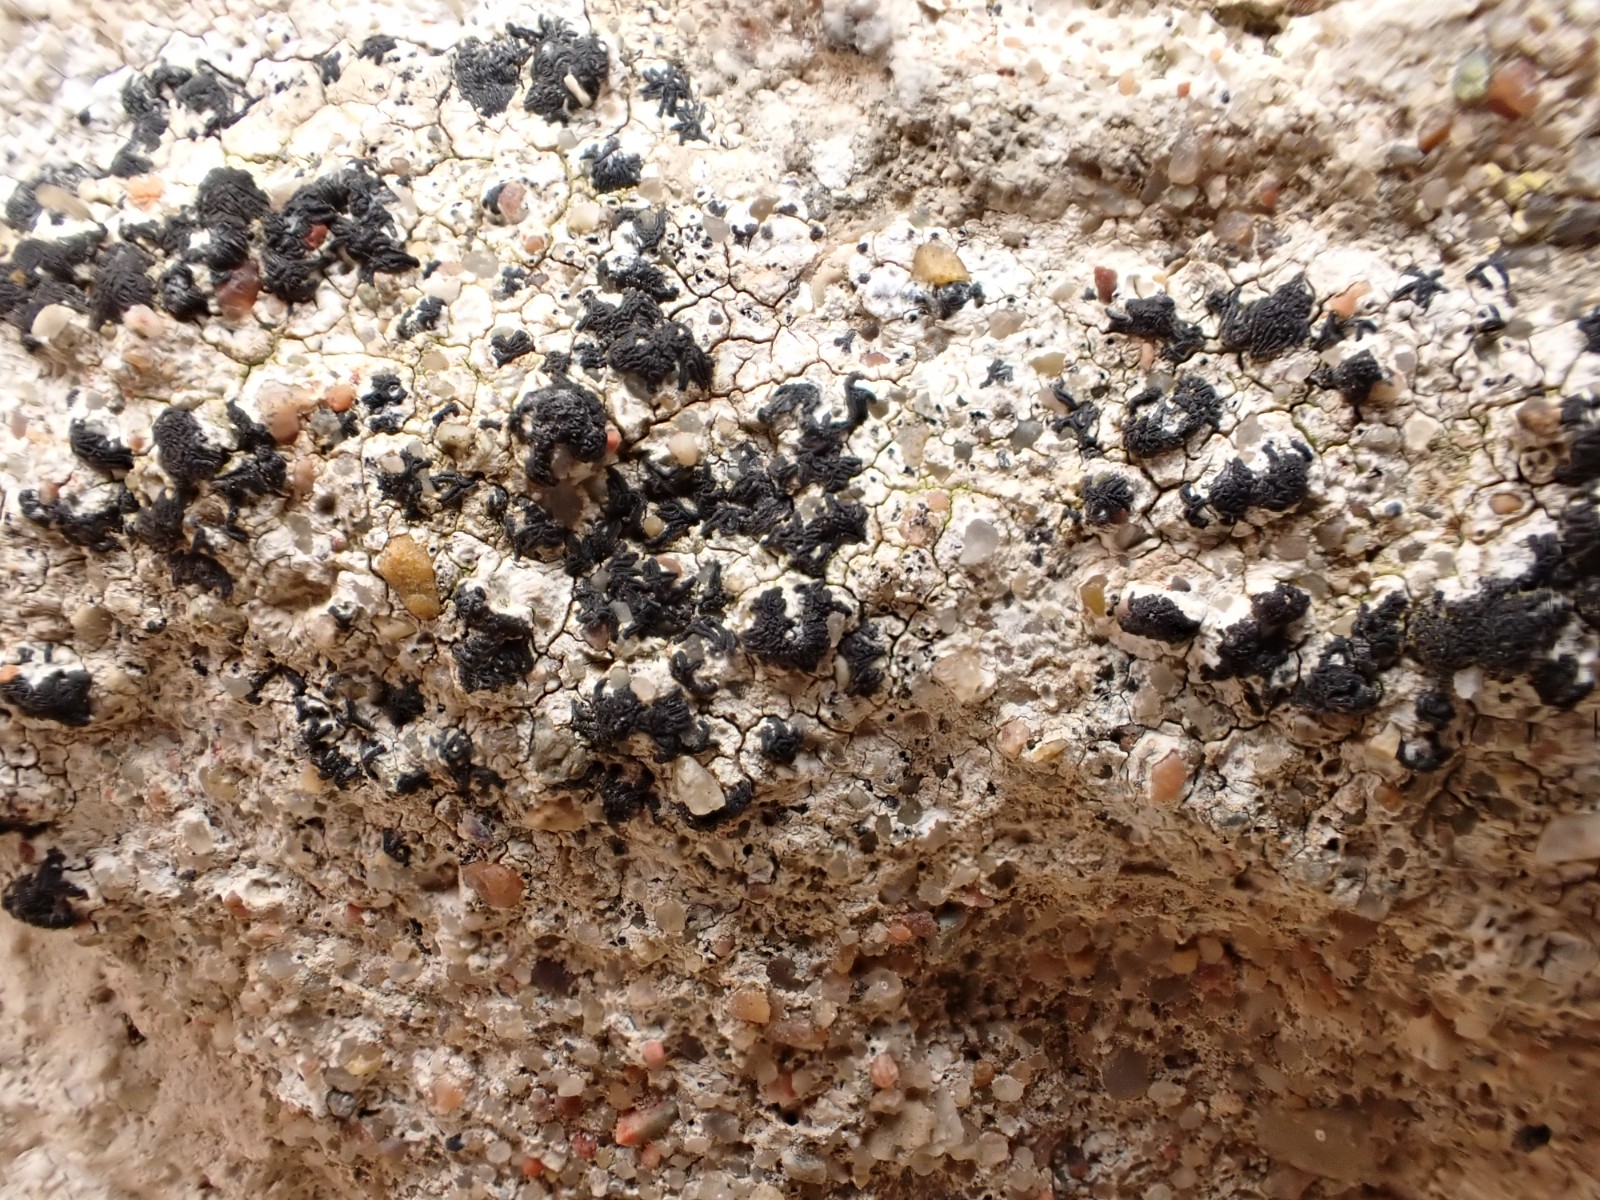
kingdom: Fungi
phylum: Ascomycota
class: Arthoniomycetes
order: Arthoniales
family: Arthoniaceae
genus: Arthonia
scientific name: Arthonia calcarea
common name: kalk-bogstavlav
